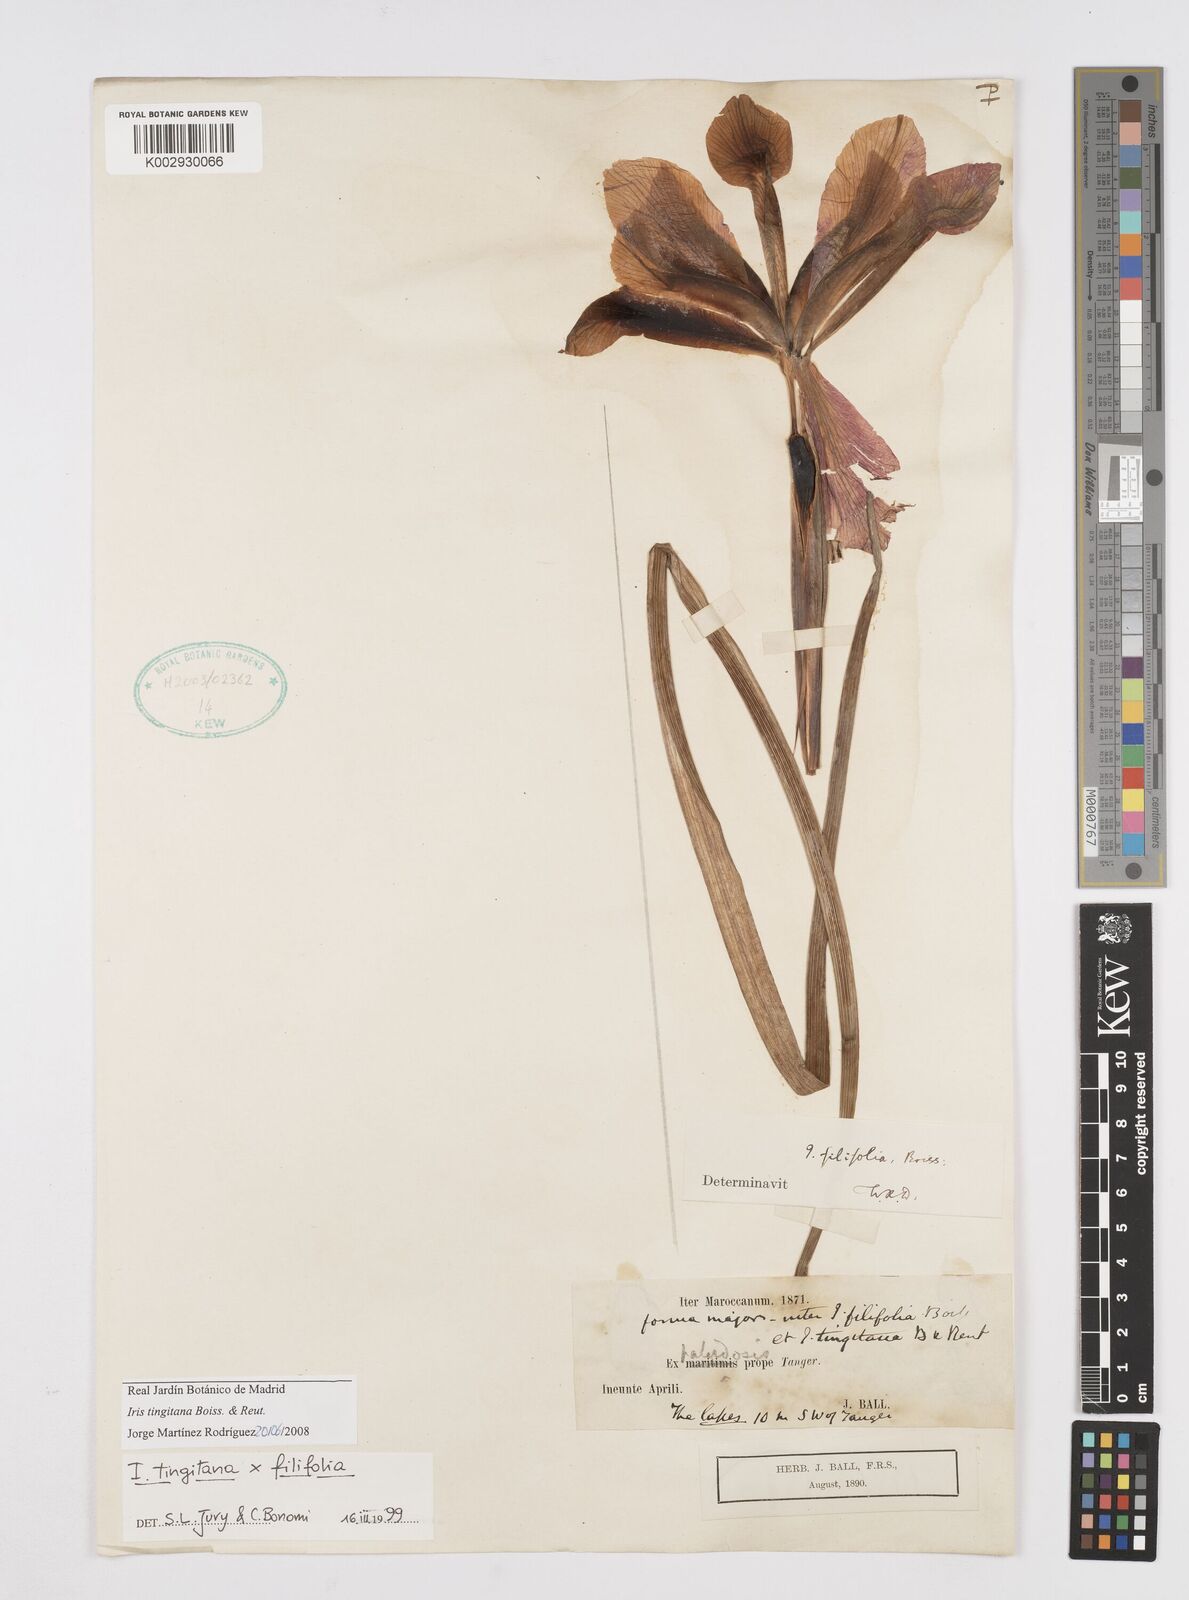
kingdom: Plantae
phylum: Tracheophyta
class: Liliopsida
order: Asparagales
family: Iridaceae
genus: Iris
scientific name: Iris tingitana
